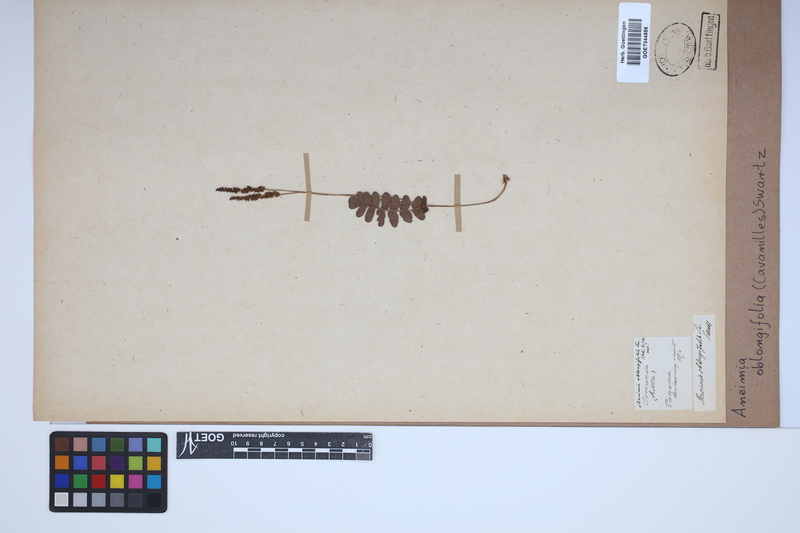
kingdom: Plantae
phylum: Tracheophyta
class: Polypodiopsida
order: Schizaeales
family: Anemiaceae
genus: Anemia
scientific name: Anemia oblongifolia
